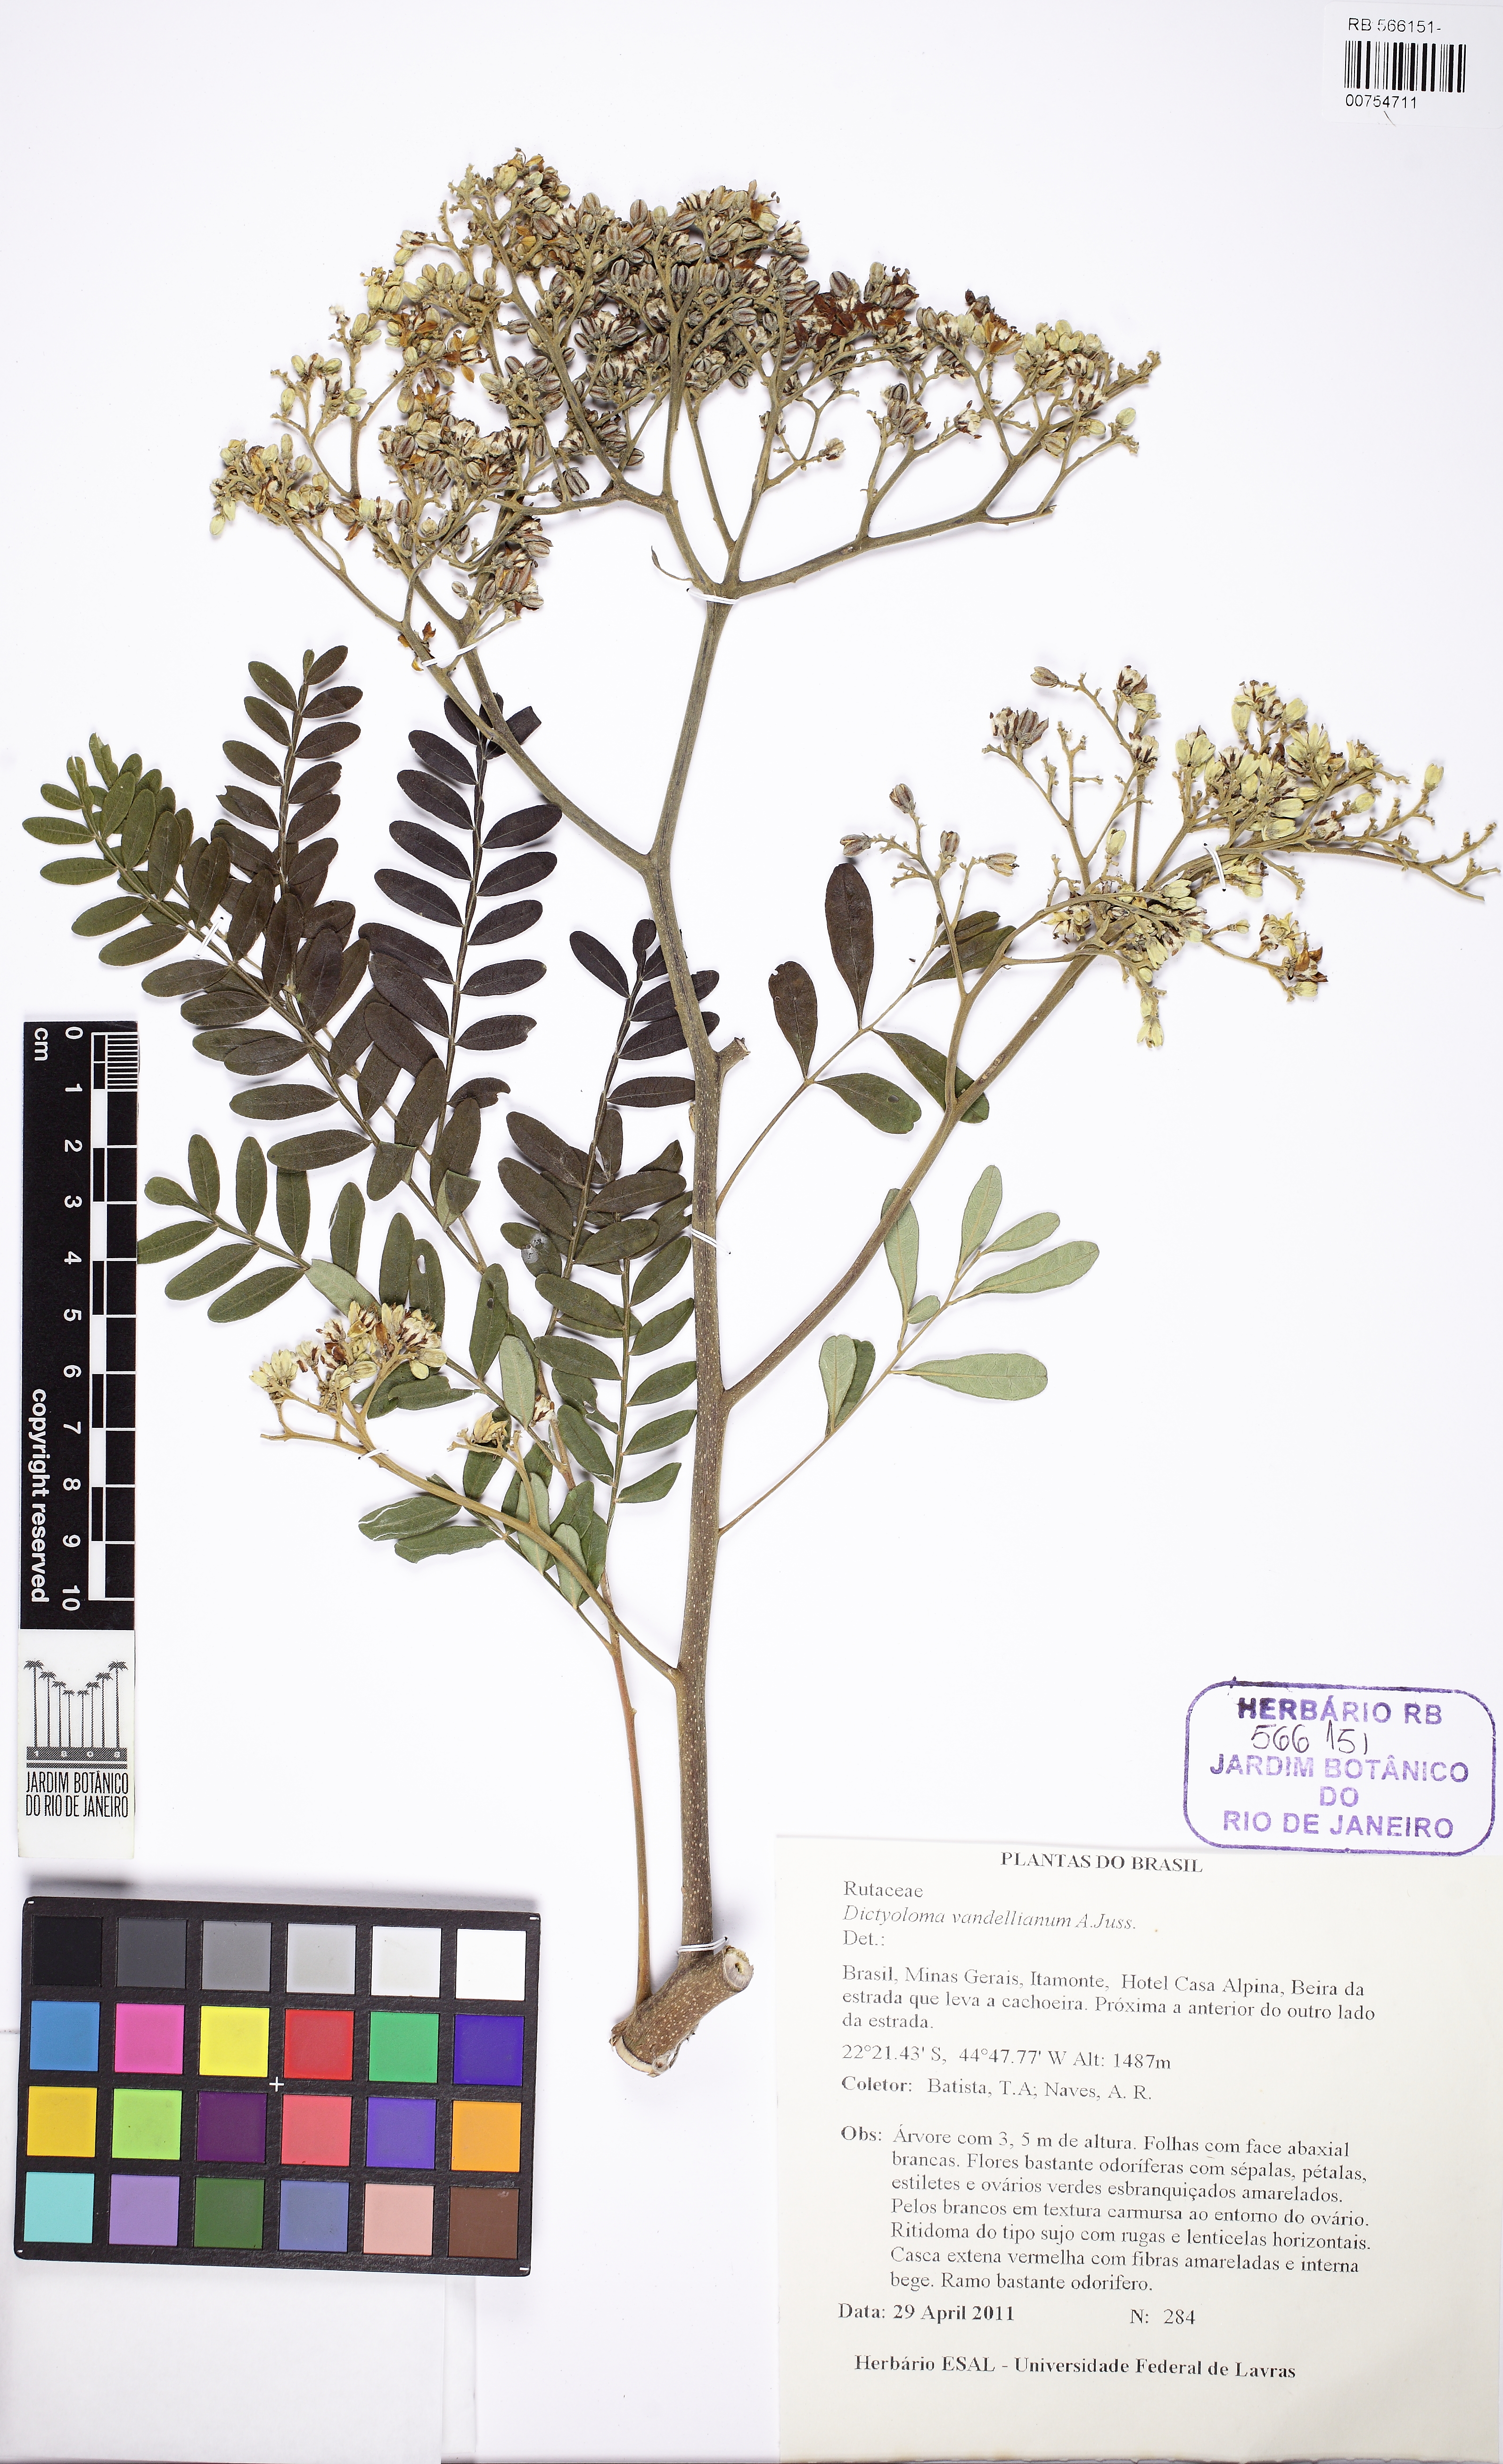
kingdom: Plantae
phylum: Tracheophyta
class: Magnoliopsida
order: Sapindales
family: Rutaceae
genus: Dictyoloma
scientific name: Dictyoloma vandellianum
